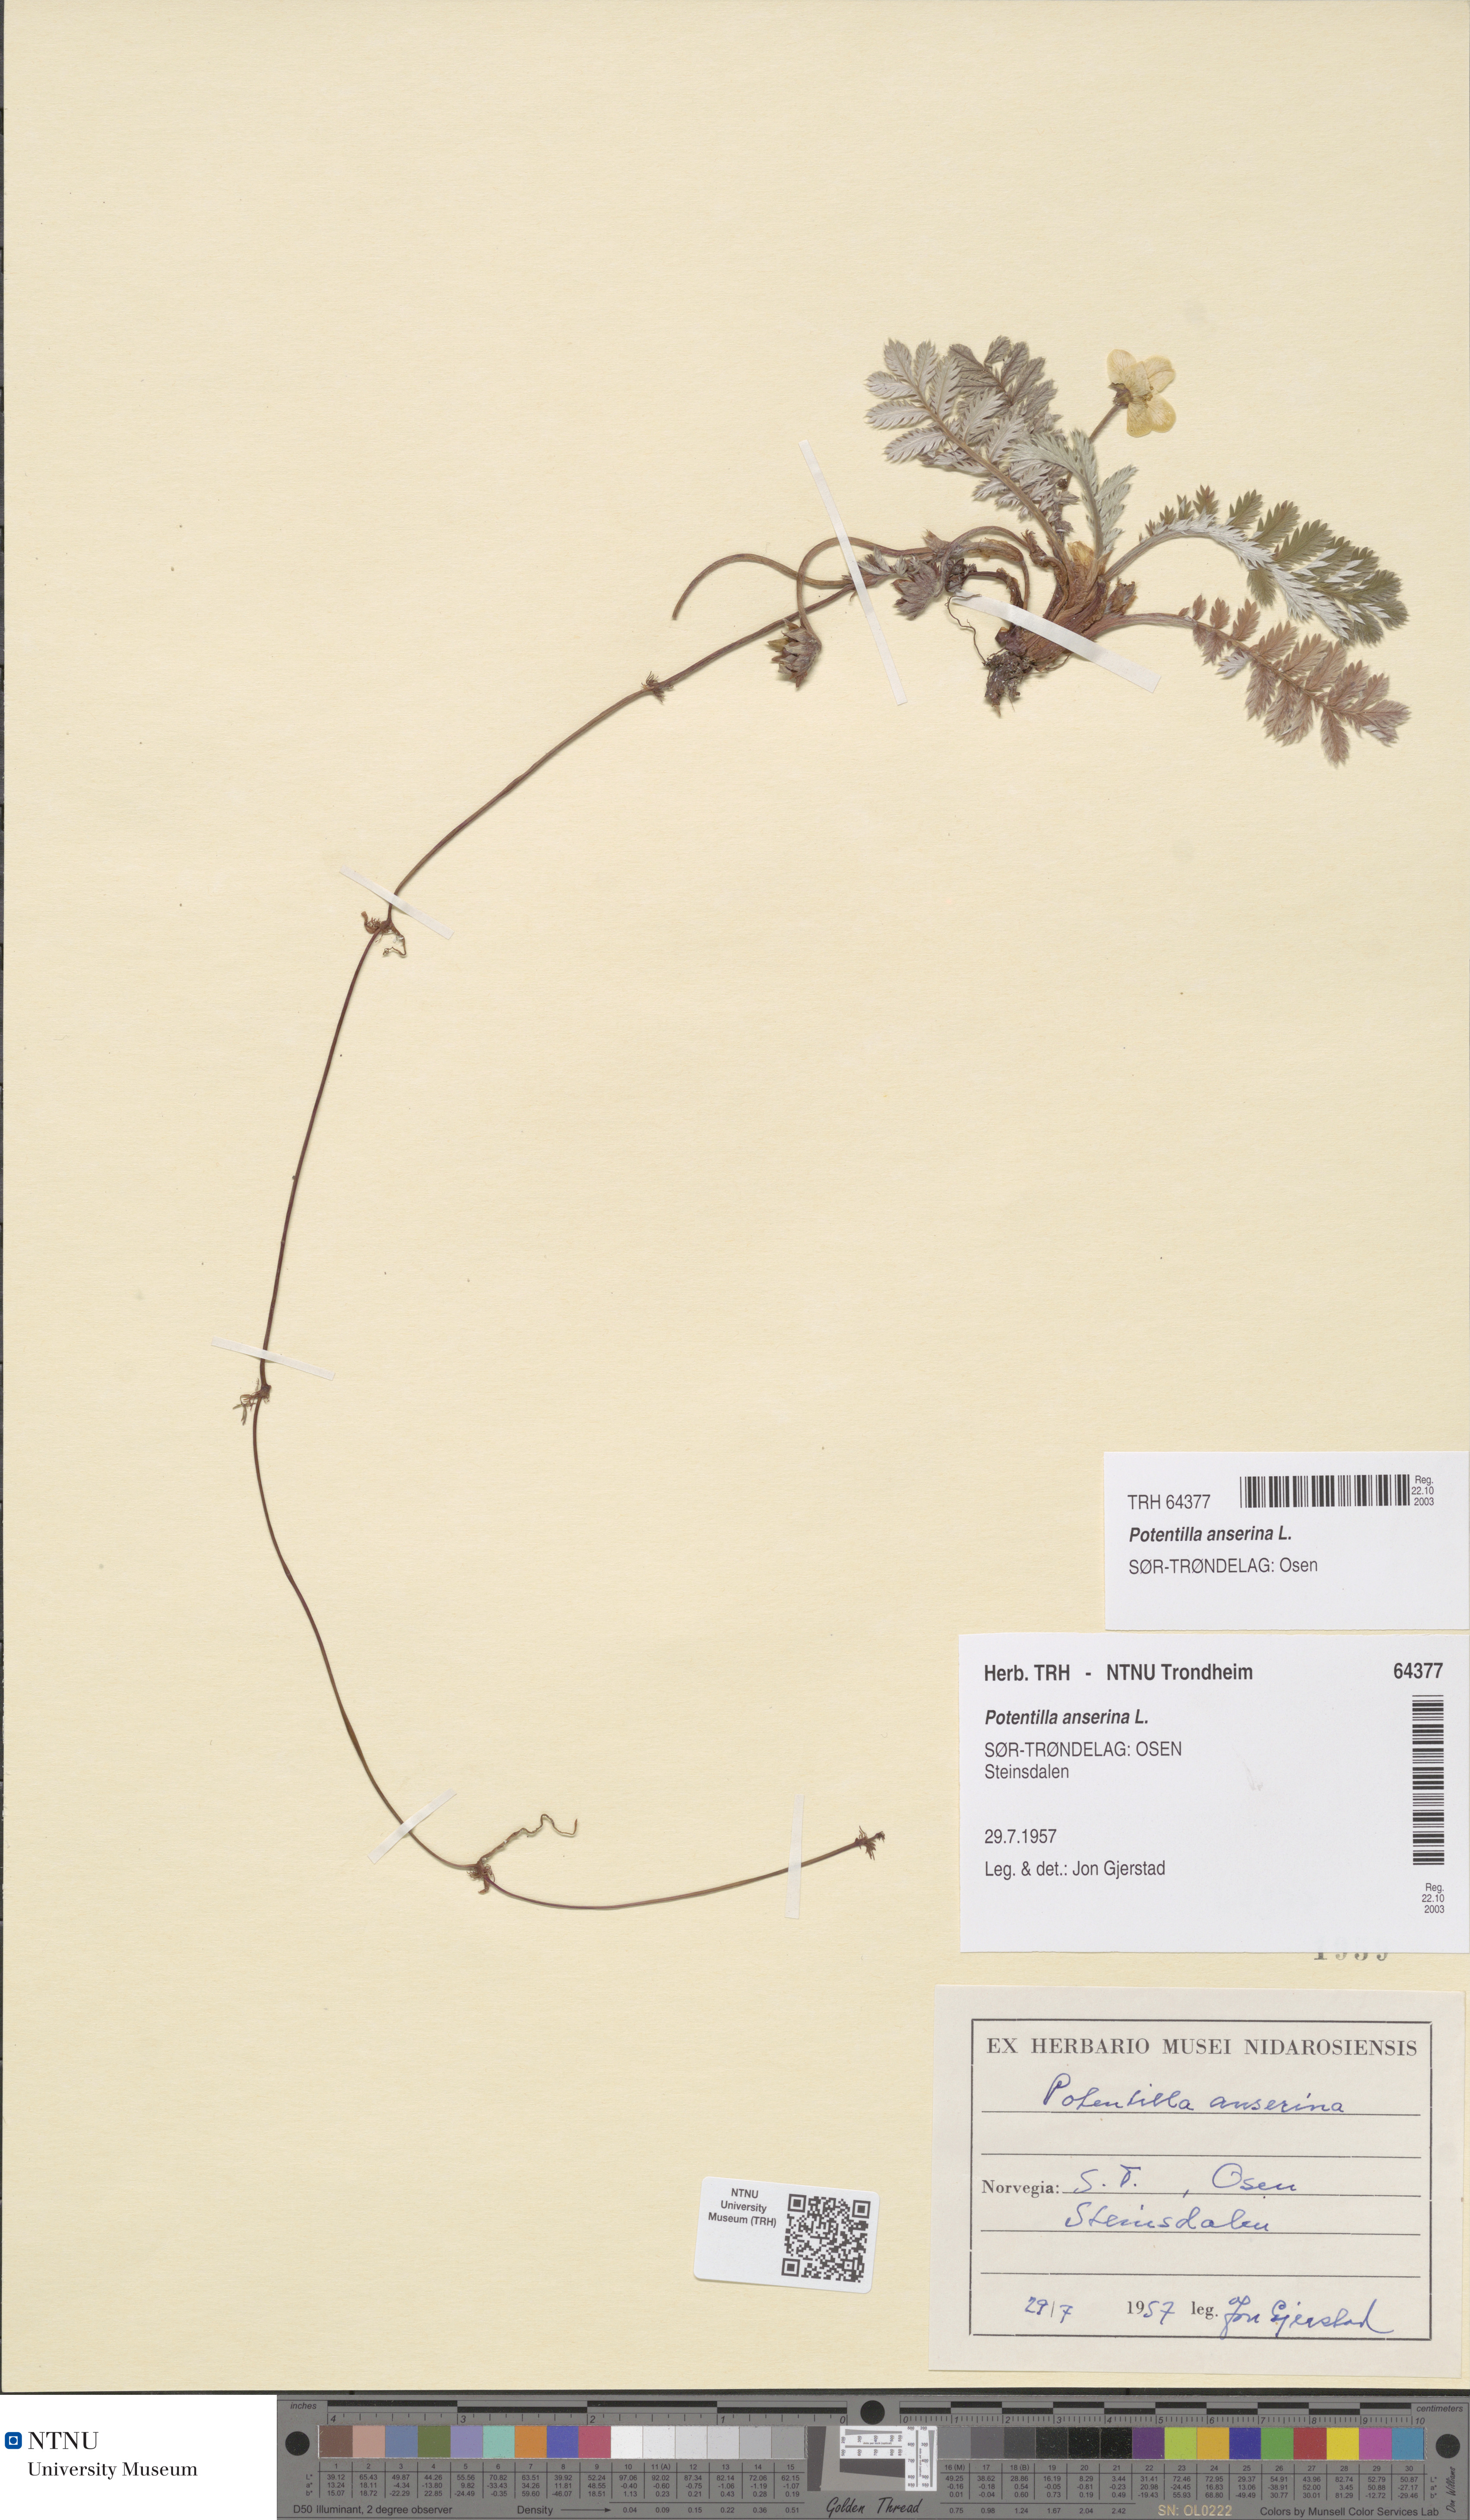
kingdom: Plantae
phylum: Tracheophyta
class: Magnoliopsida
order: Rosales
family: Rosaceae
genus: Argentina
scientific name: Argentina anserina
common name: Common silverweed
